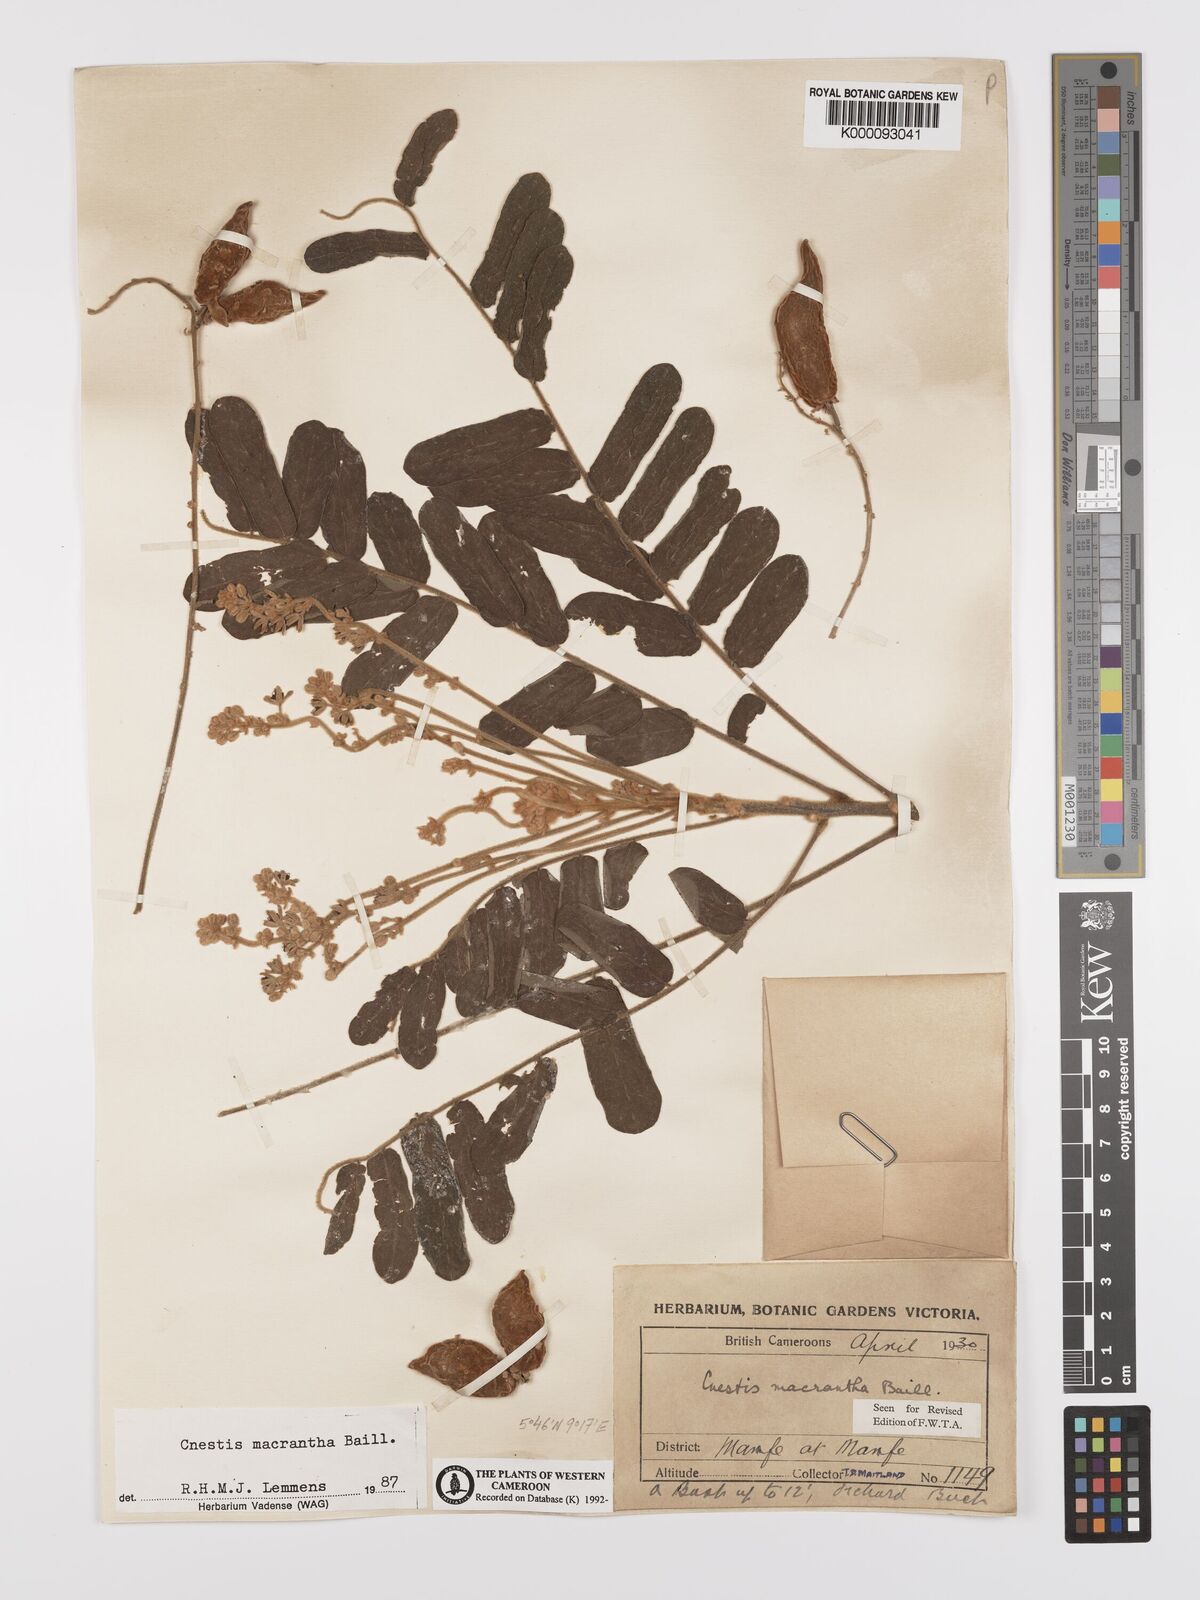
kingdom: Plantae
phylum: Tracheophyta
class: Magnoliopsida
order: Oxalidales
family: Connaraceae
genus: Cnestis
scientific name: Cnestis macrantha
